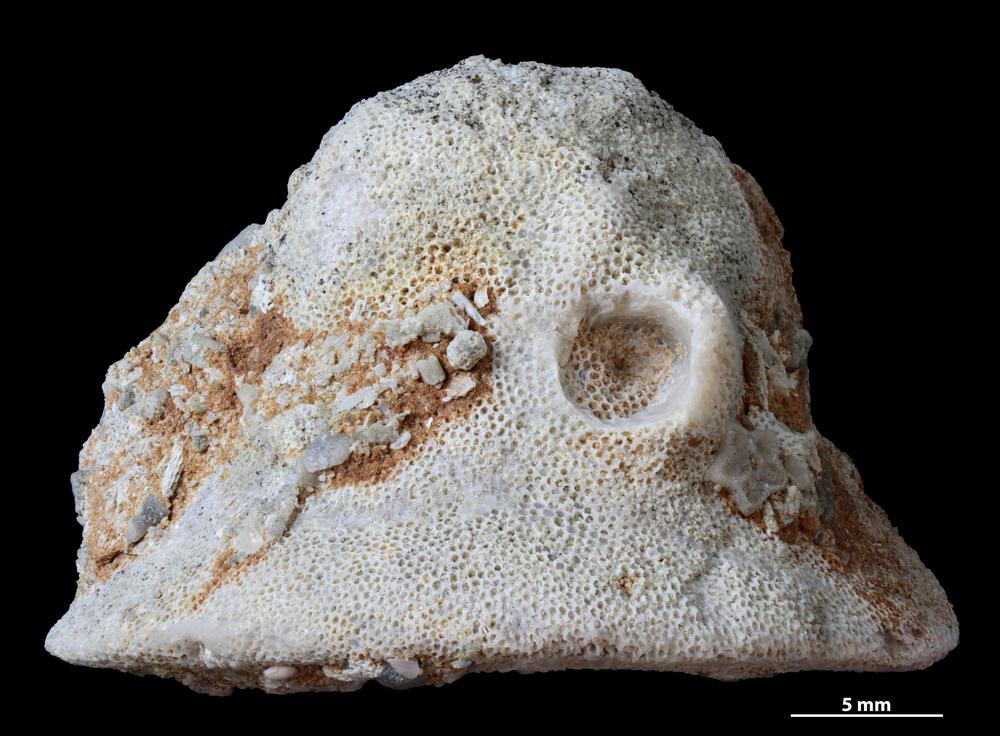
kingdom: Animalia
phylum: Bryozoa
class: Stenolaemata
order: Trepostomatida
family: Diplotrypidae
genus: Diplotrypa
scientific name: Diplotrypa
